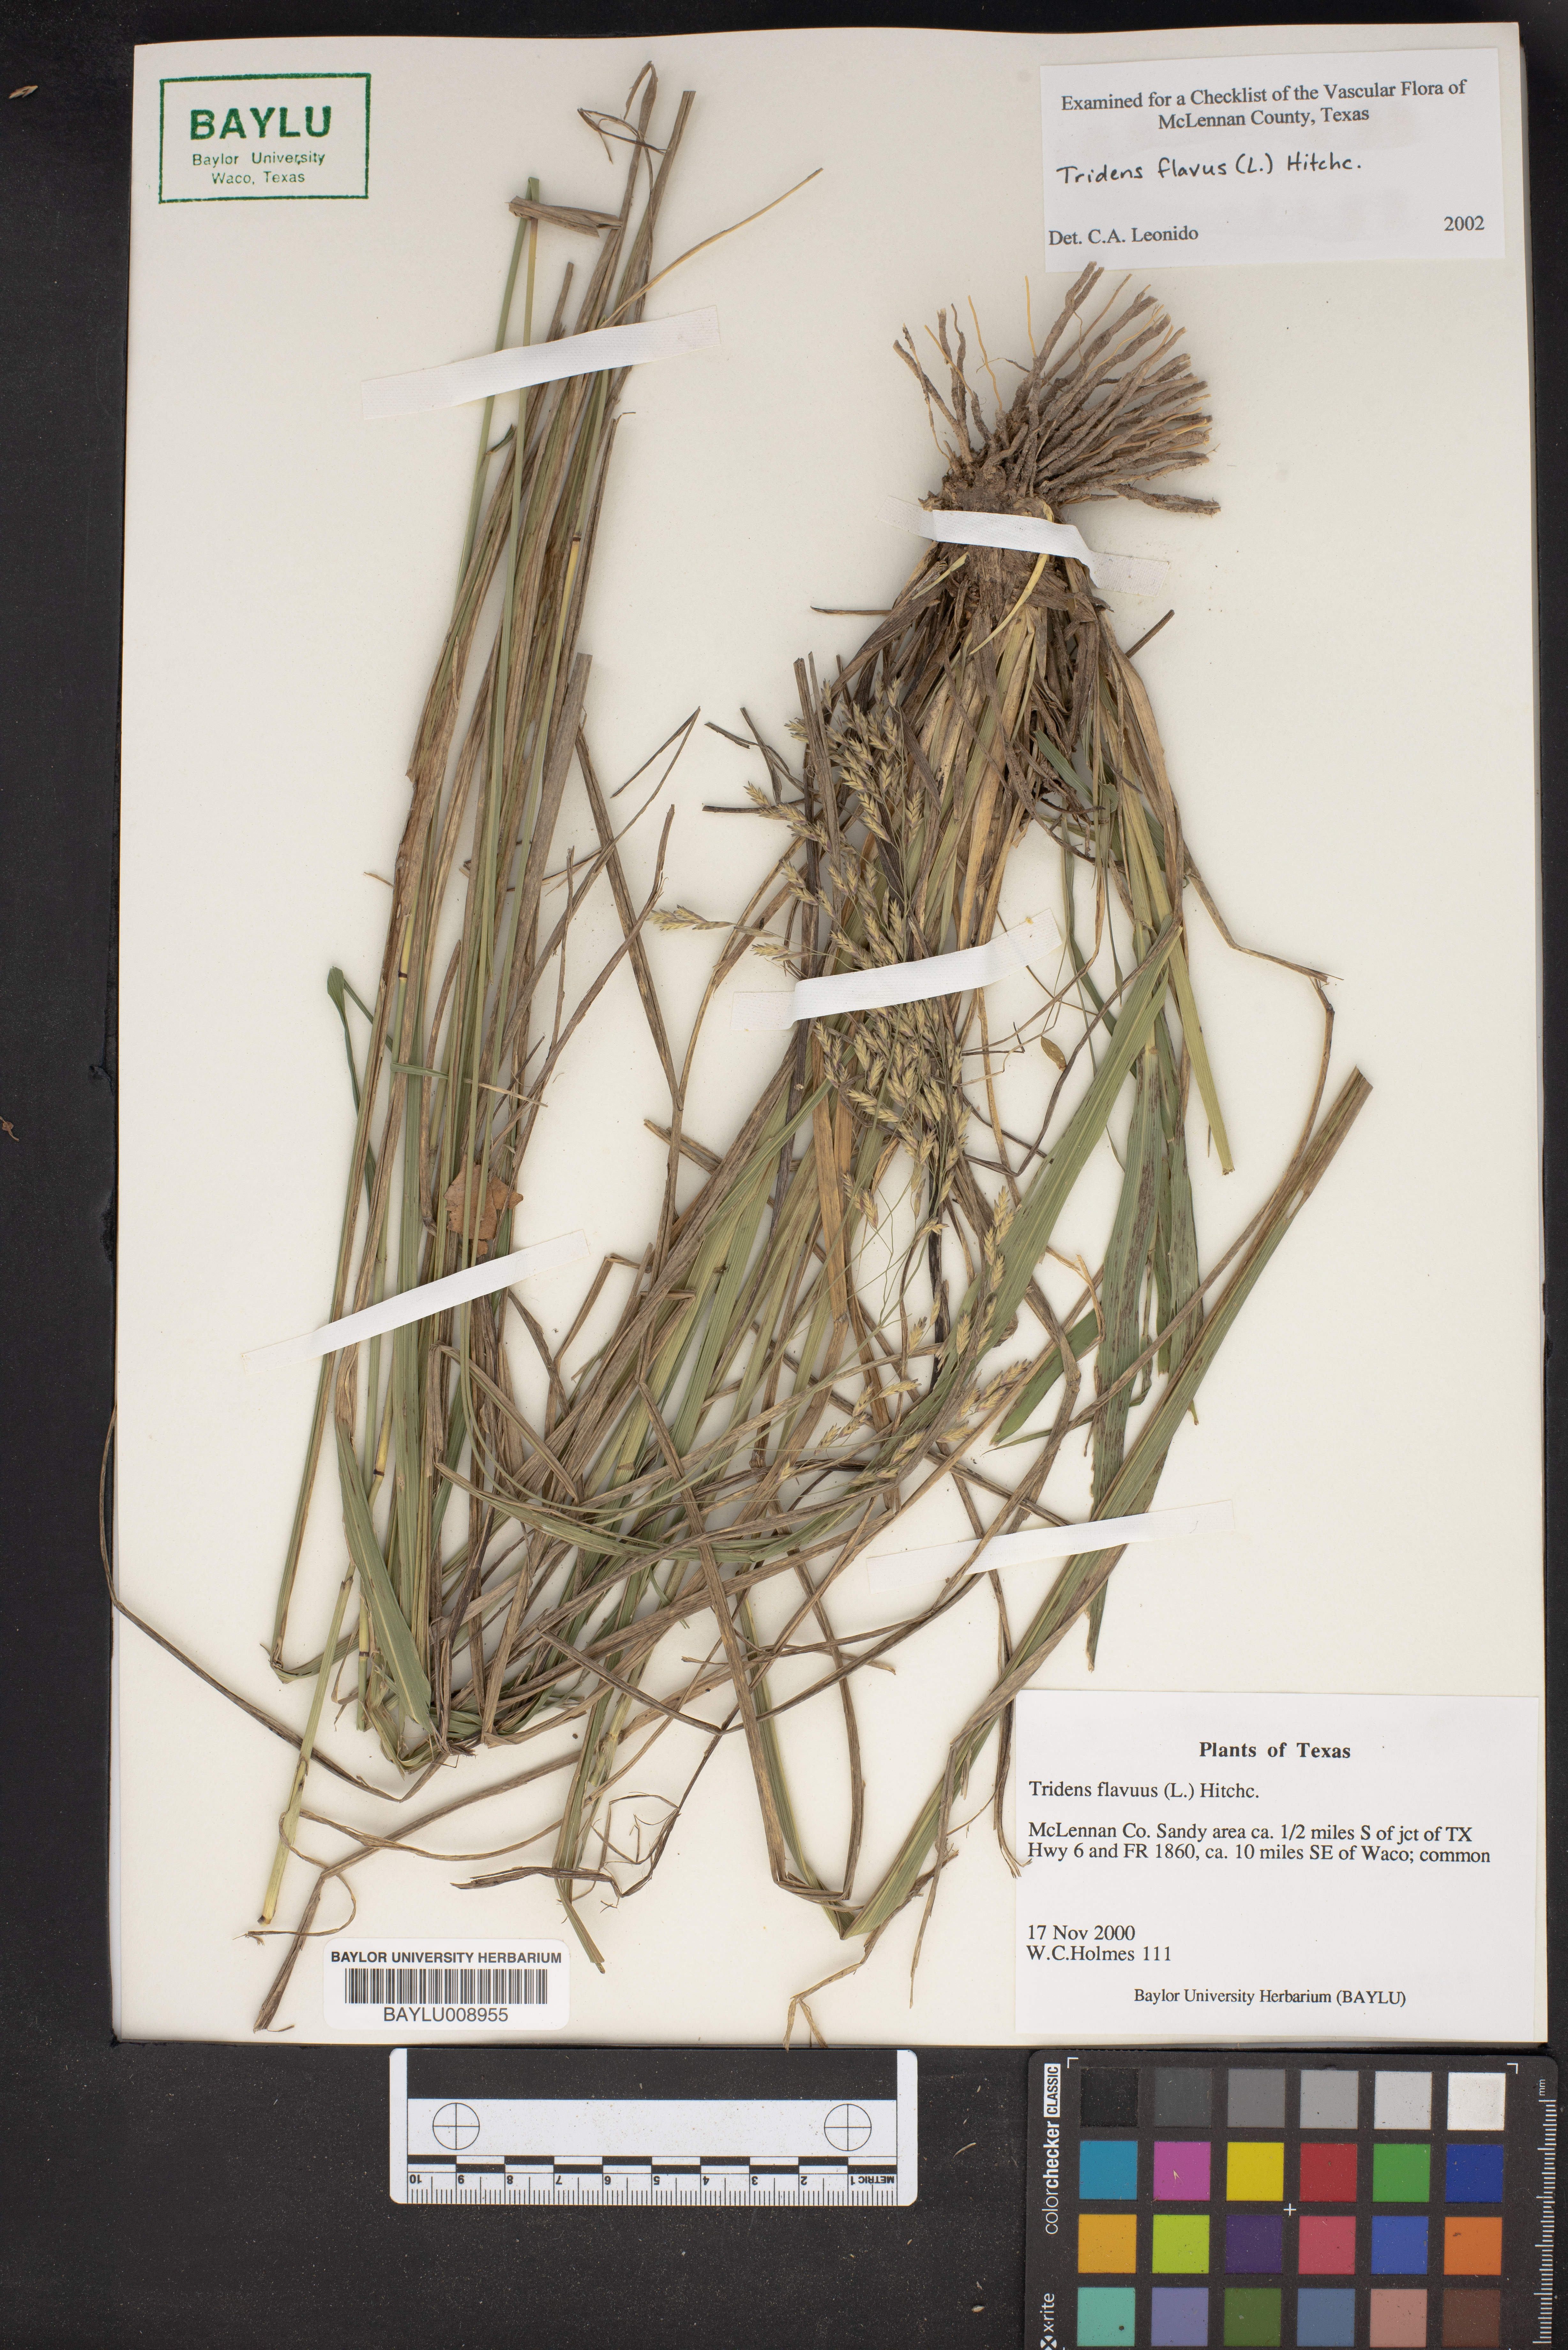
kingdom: Plantae
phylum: Tracheophyta
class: Liliopsida
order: Poales
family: Poaceae
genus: Tridens
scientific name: Tridens flavus
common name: Purpletop
